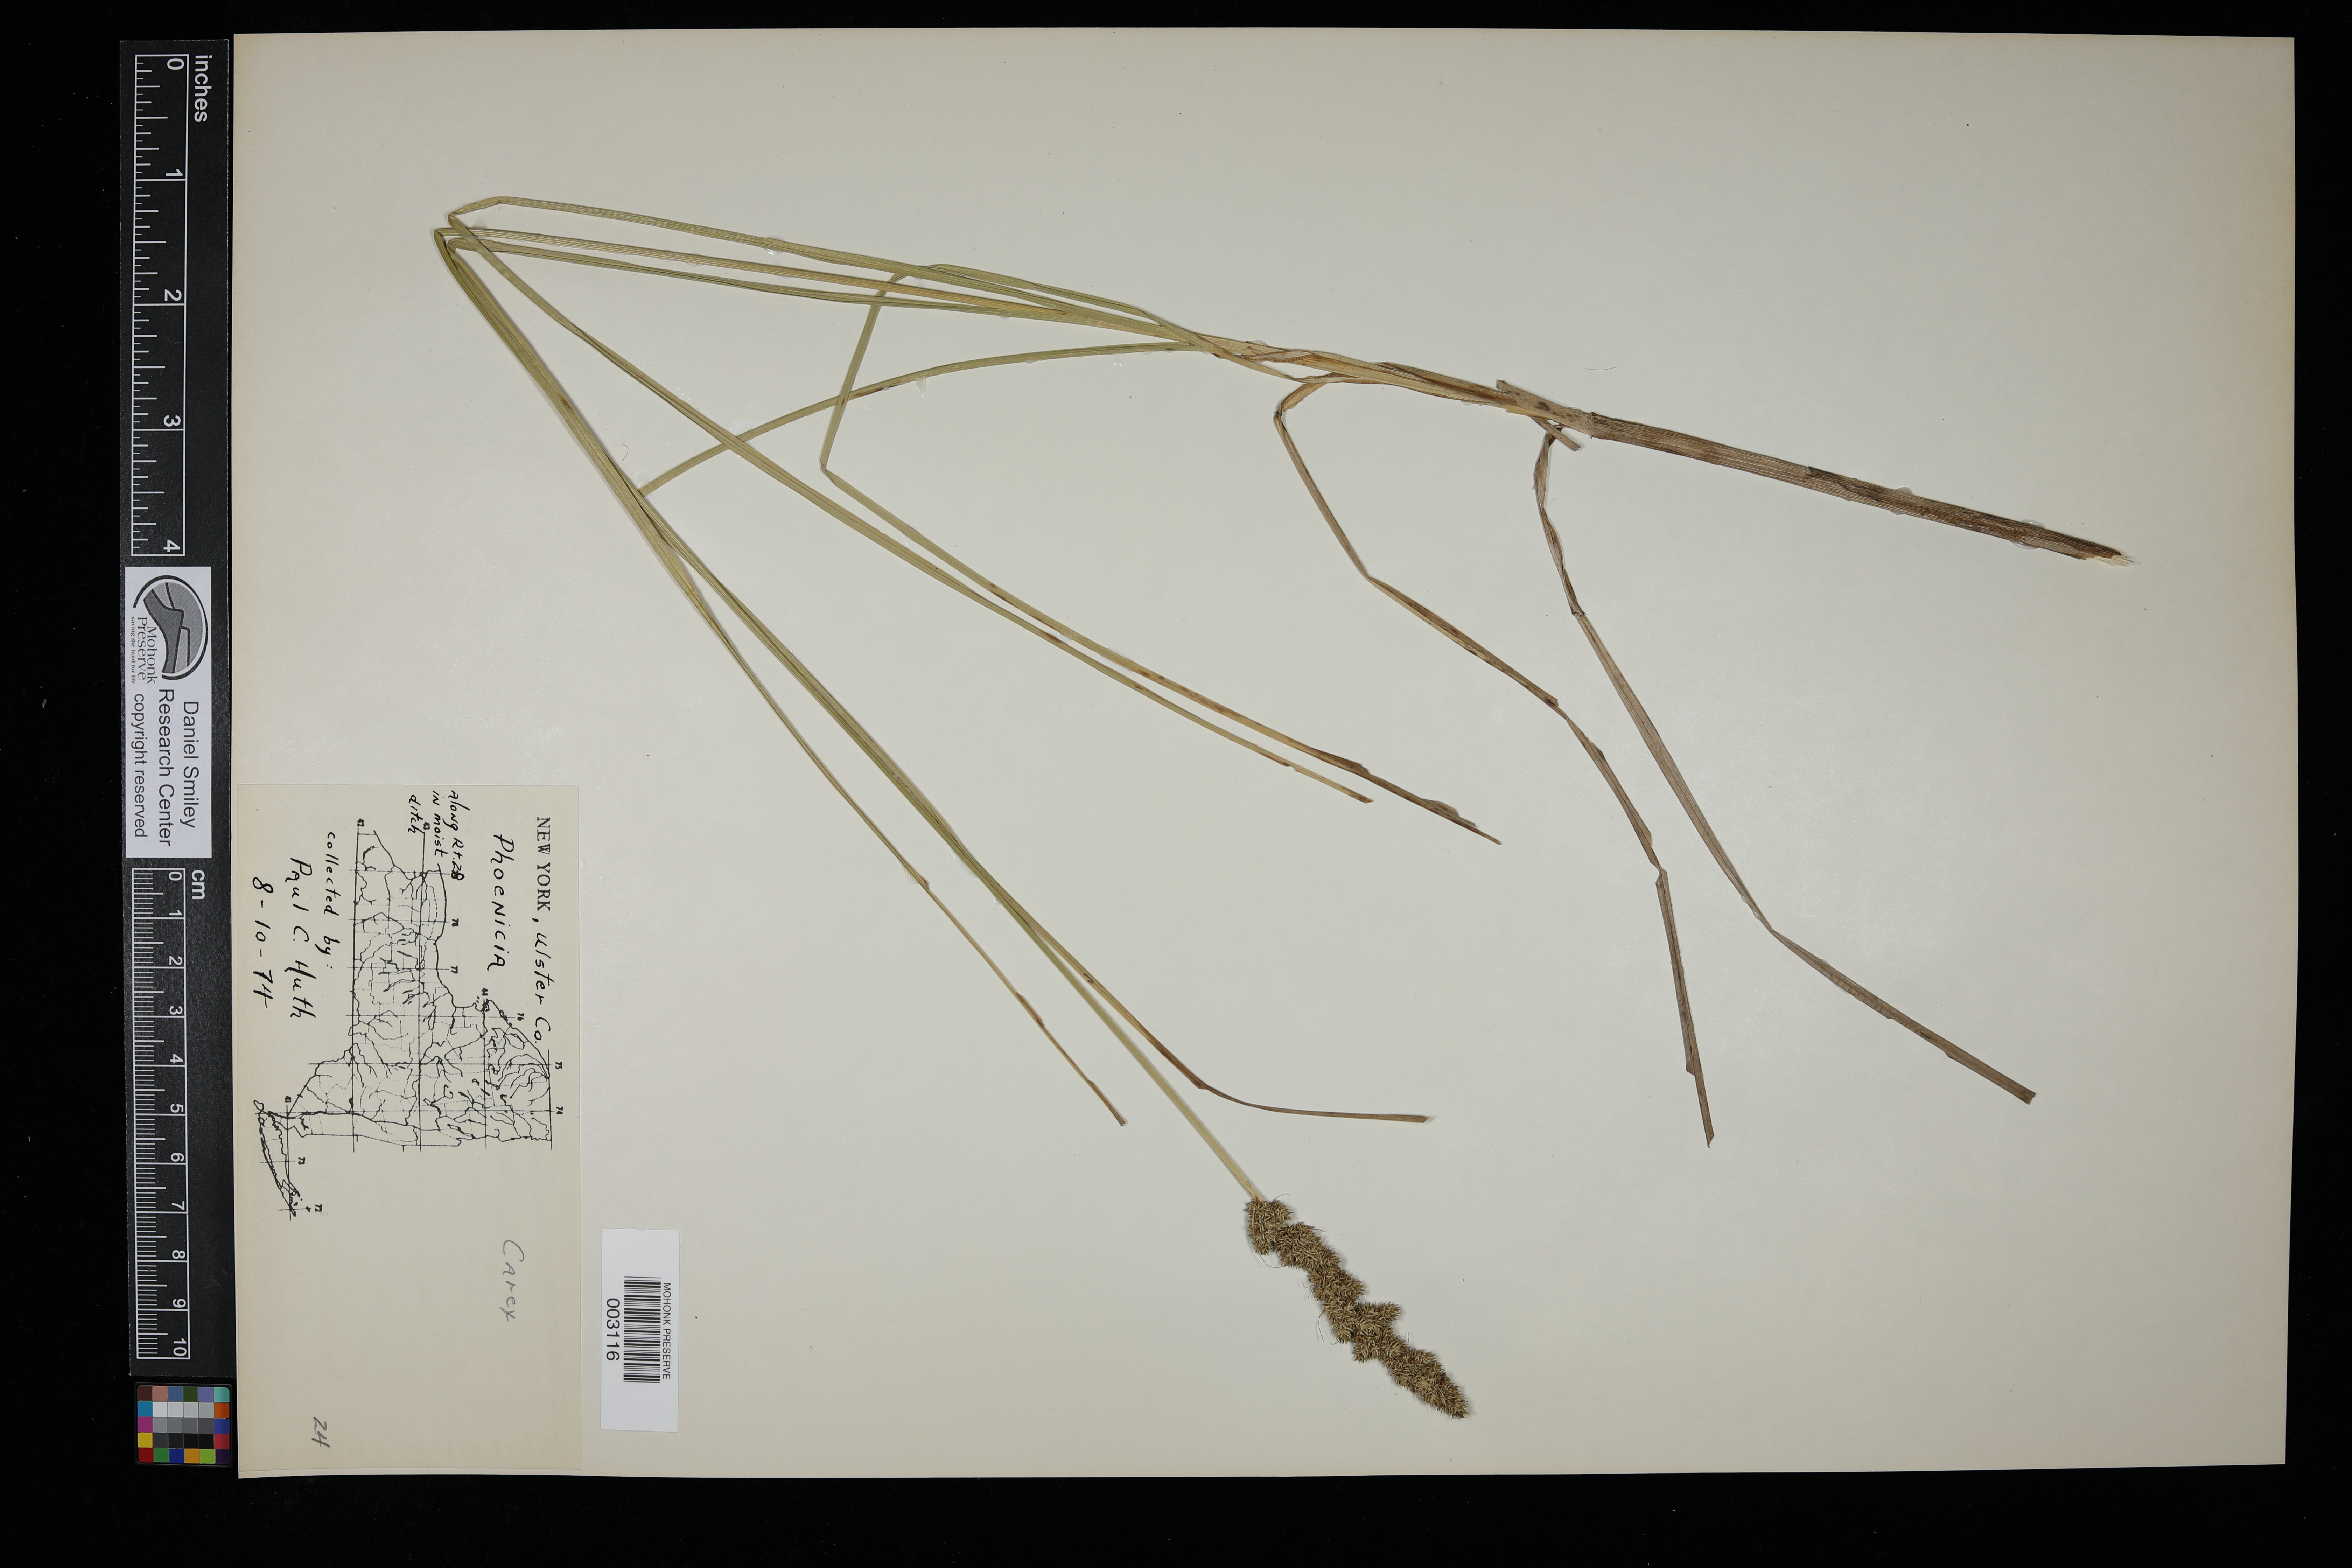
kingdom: Plantae
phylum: Tracheophyta
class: Liliopsida
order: Poales
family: Cyperaceae
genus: Carex
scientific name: Carex
